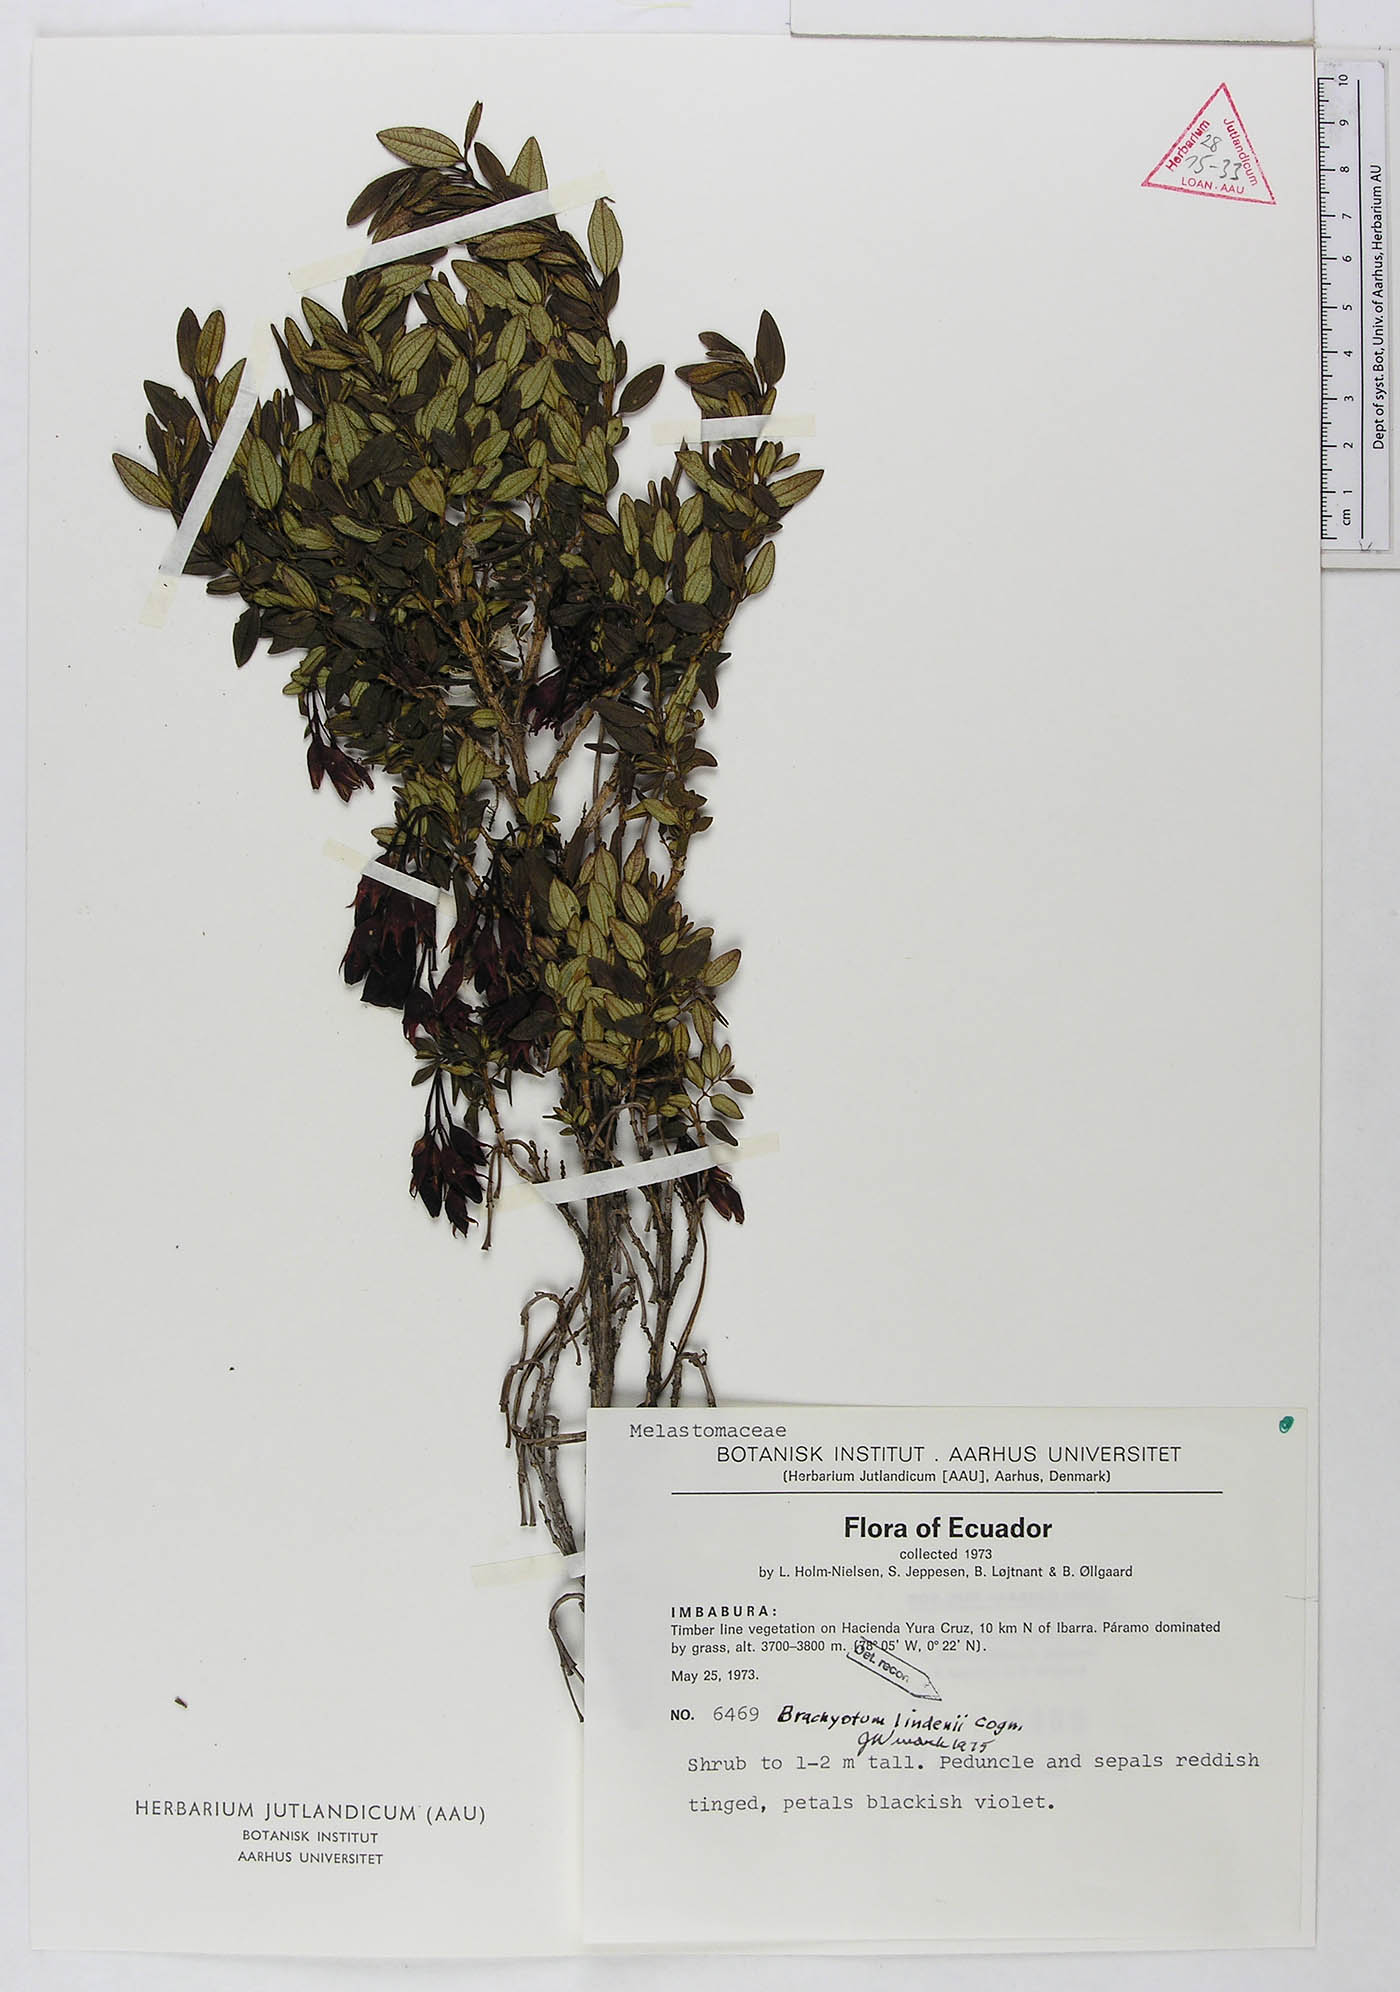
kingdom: Plantae
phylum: Tracheophyta
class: Magnoliopsida
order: Myrtales
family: Melastomataceae
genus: Brachyotum
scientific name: Brachyotum lindenii
